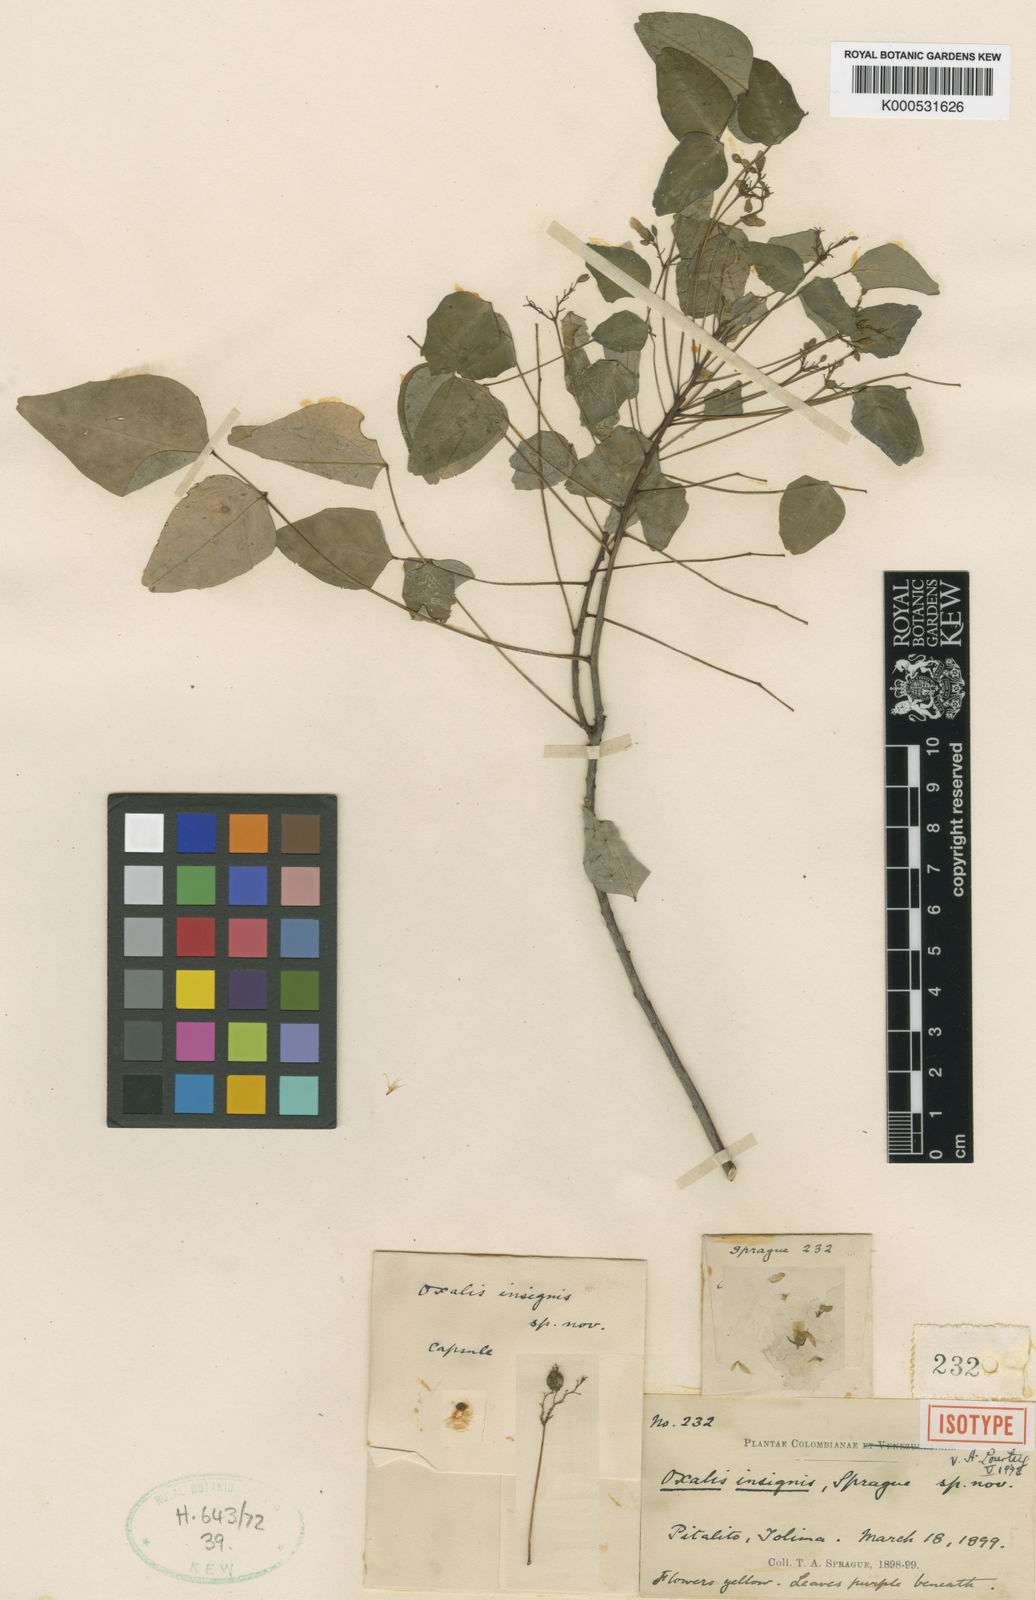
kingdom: Plantae
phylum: Tracheophyta
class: Magnoliopsida
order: Oxalidales
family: Oxalidaceae
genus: Oxalis
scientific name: Oxalis hedysaroides
